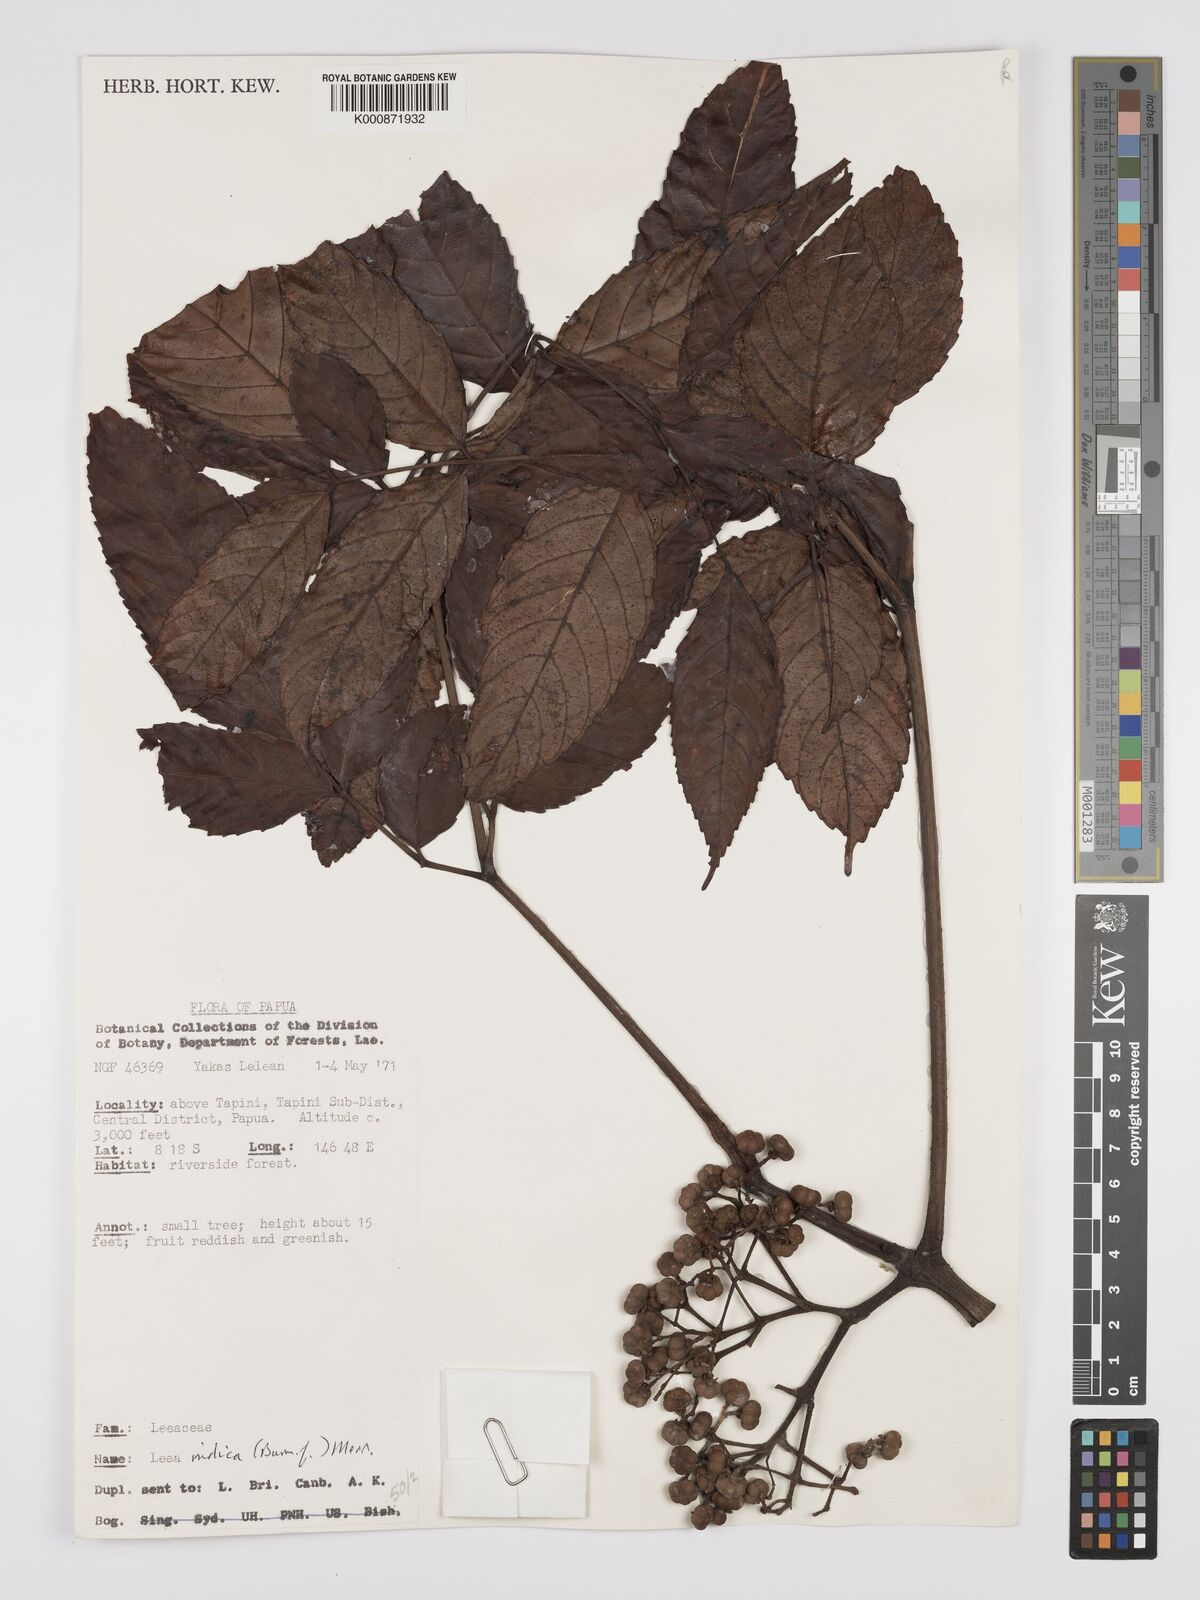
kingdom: Plantae
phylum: Tracheophyta
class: Magnoliopsida
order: Vitales
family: Vitaceae
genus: Leea
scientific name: Leea indica
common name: Bandicoot-berry
